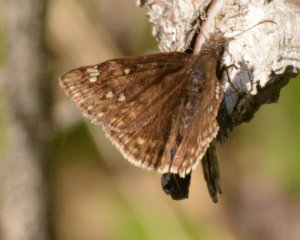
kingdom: Animalia
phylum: Arthropoda
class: Insecta
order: Lepidoptera
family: Hesperiidae
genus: Gesta
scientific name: Gesta
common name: Juvenal's Duskywing
